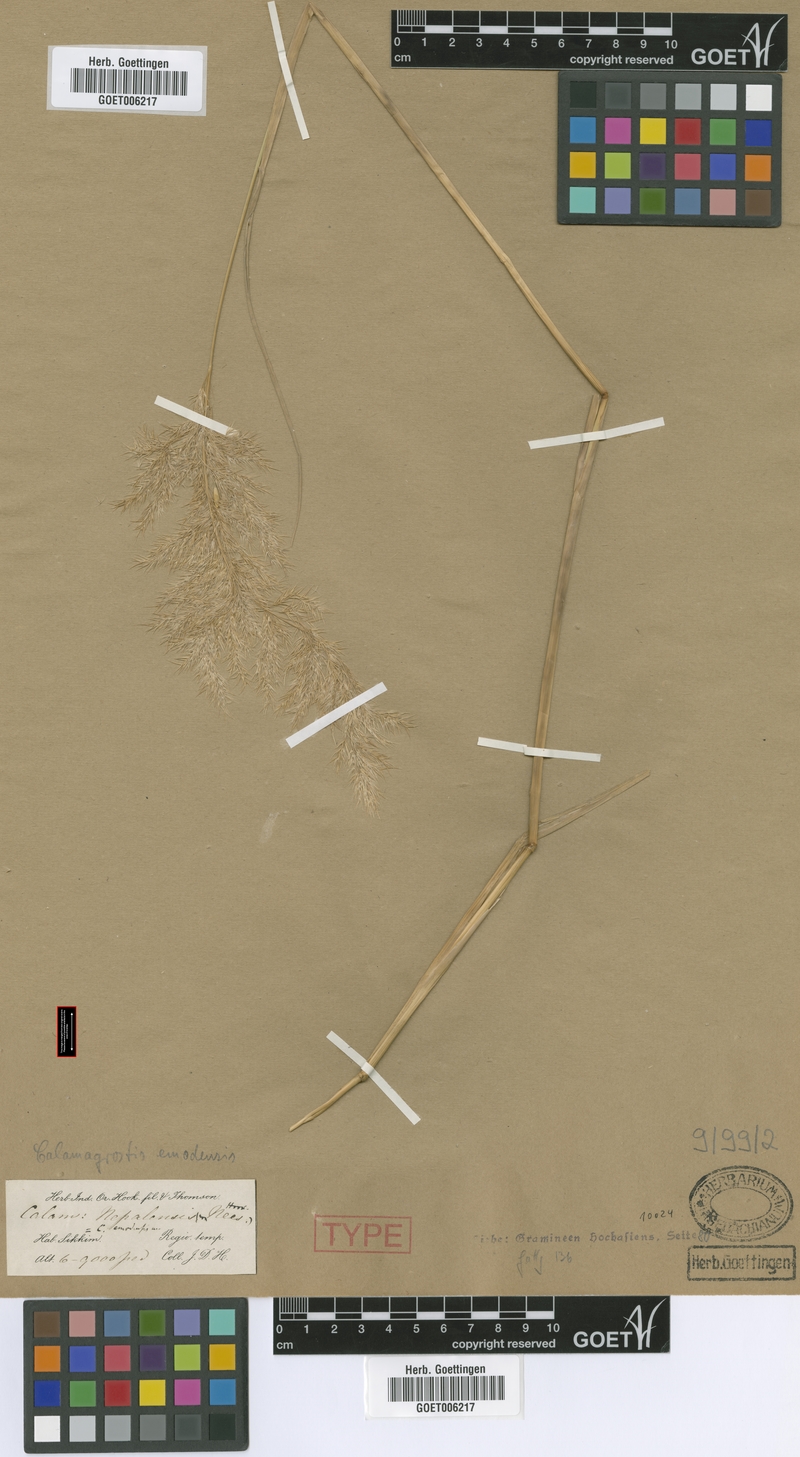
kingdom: Plantae
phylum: Tracheophyta
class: Liliopsida
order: Poales
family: Poaceae
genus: Calamagrostis
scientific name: Calamagrostis emodensis
